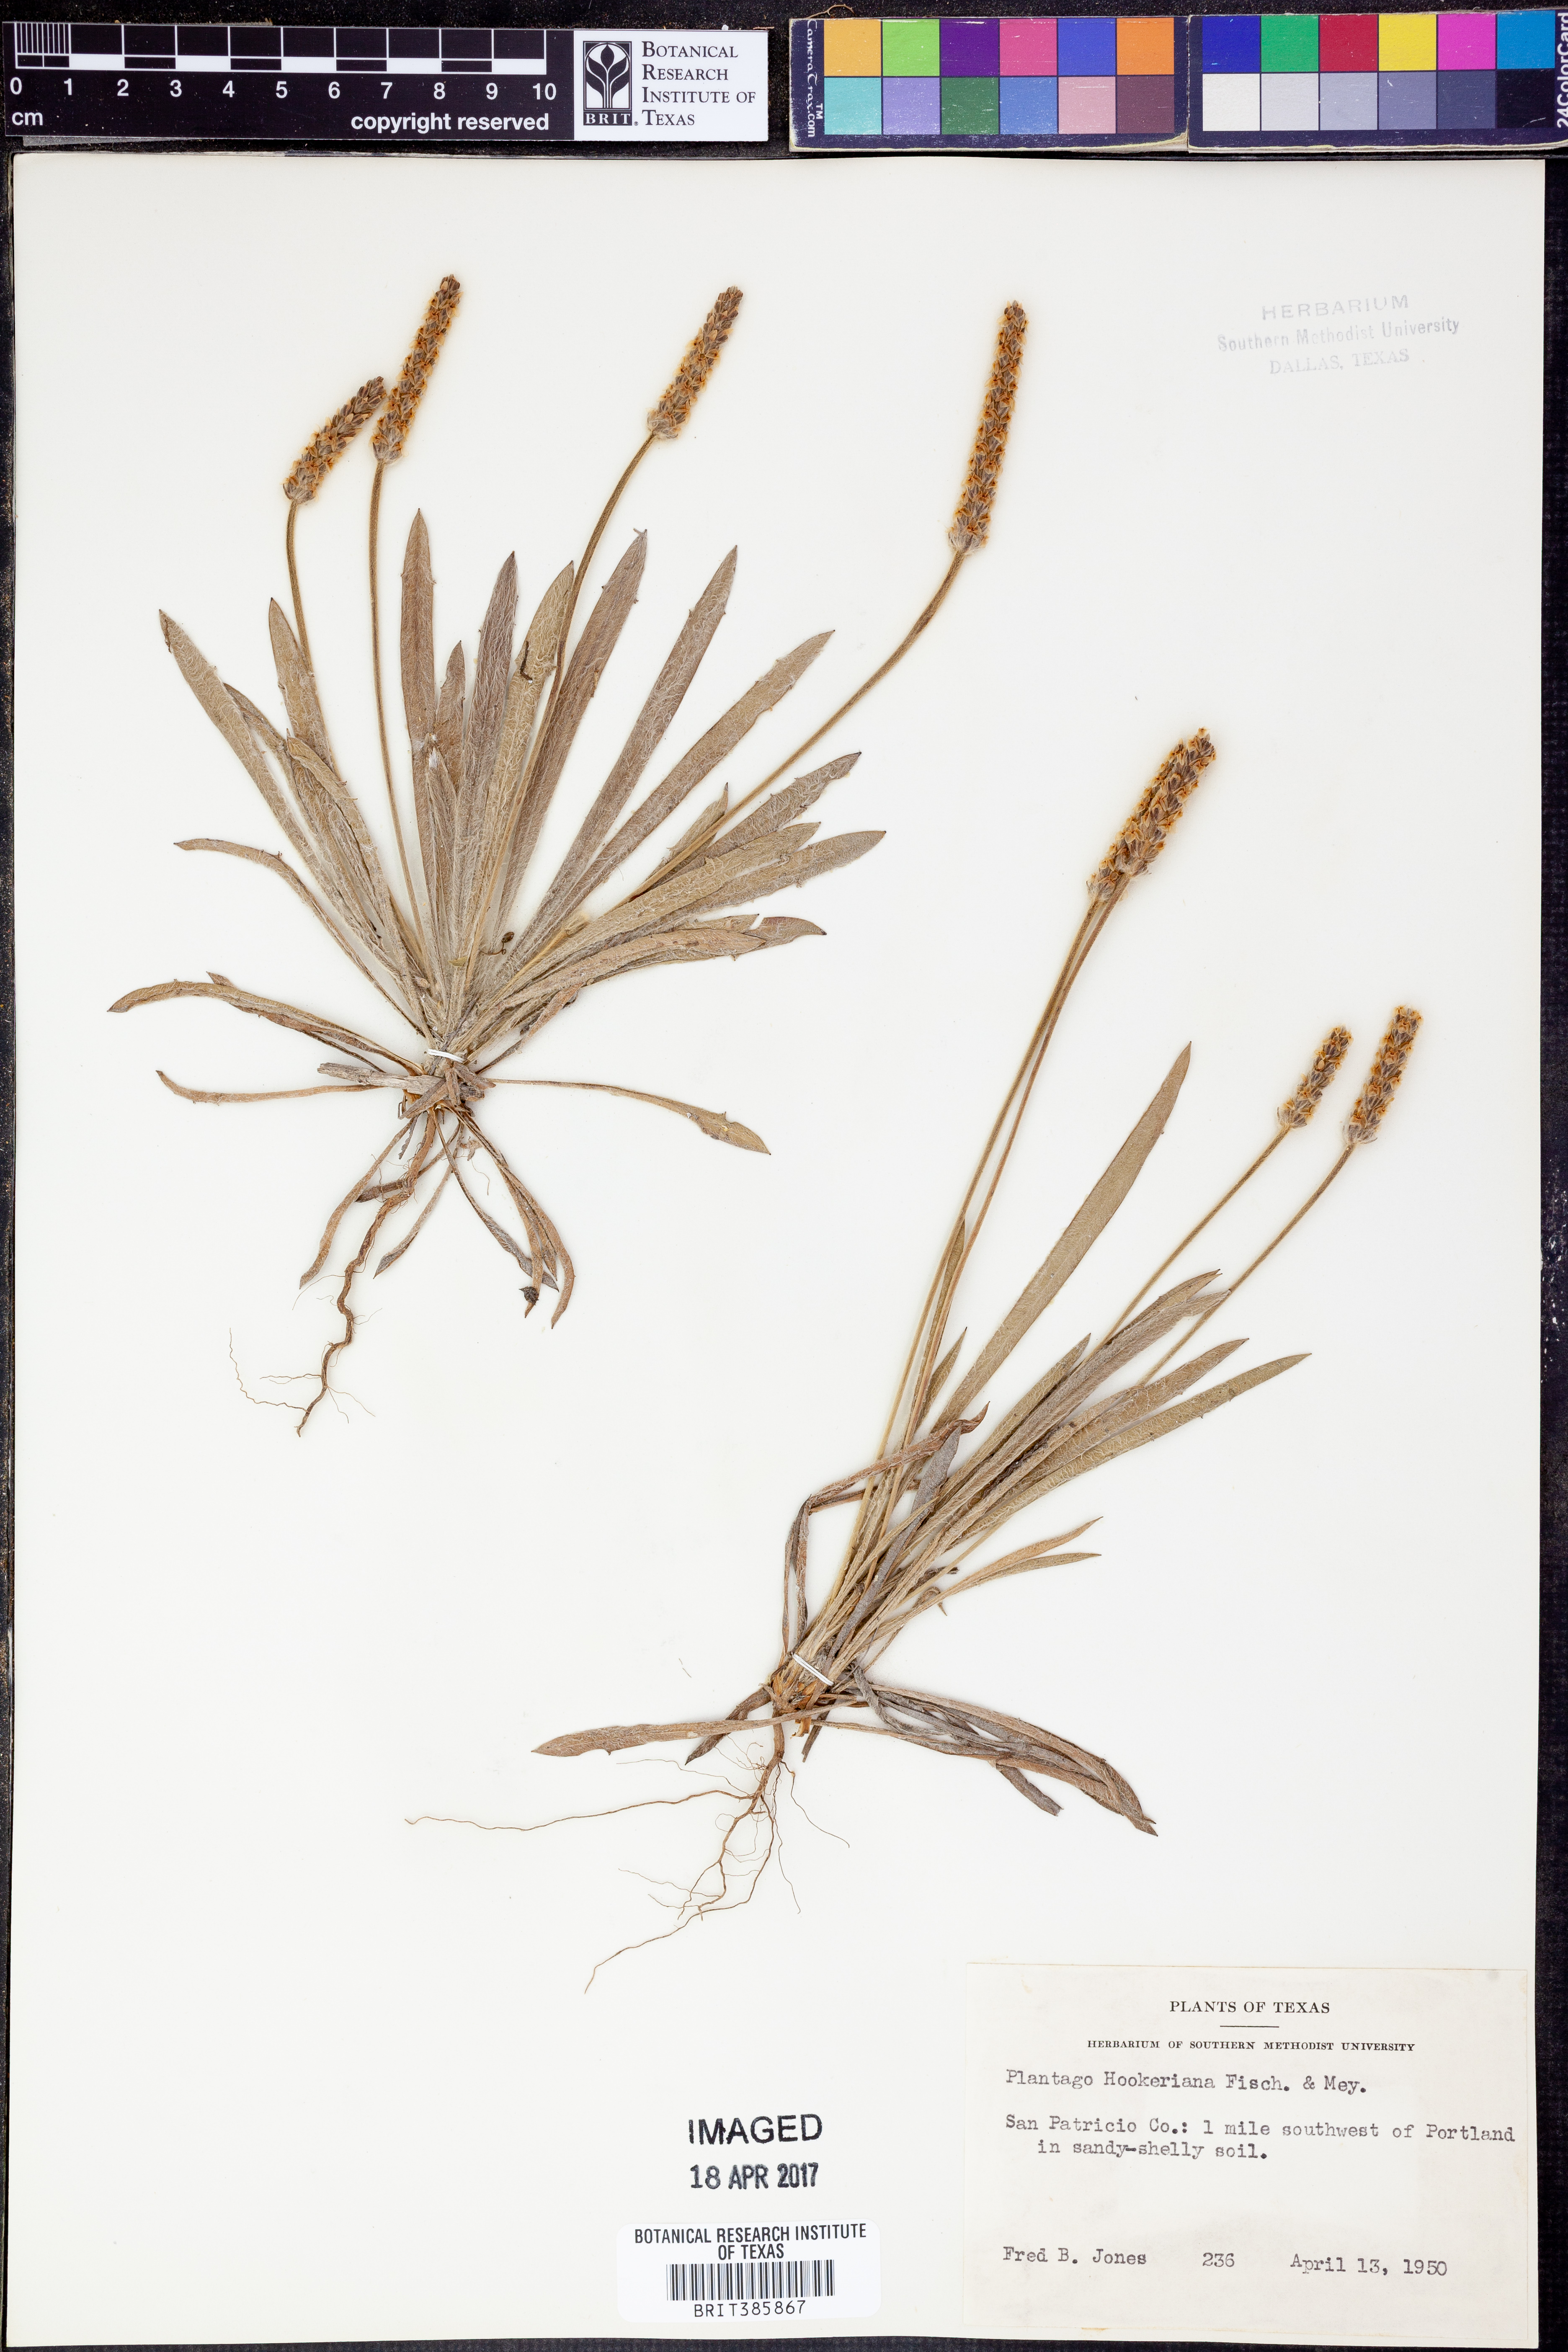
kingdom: Plantae
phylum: Tracheophyta
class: Magnoliopsida
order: Lamiales
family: Plantaginaceae
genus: Plantago
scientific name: Plantago hookeriana
